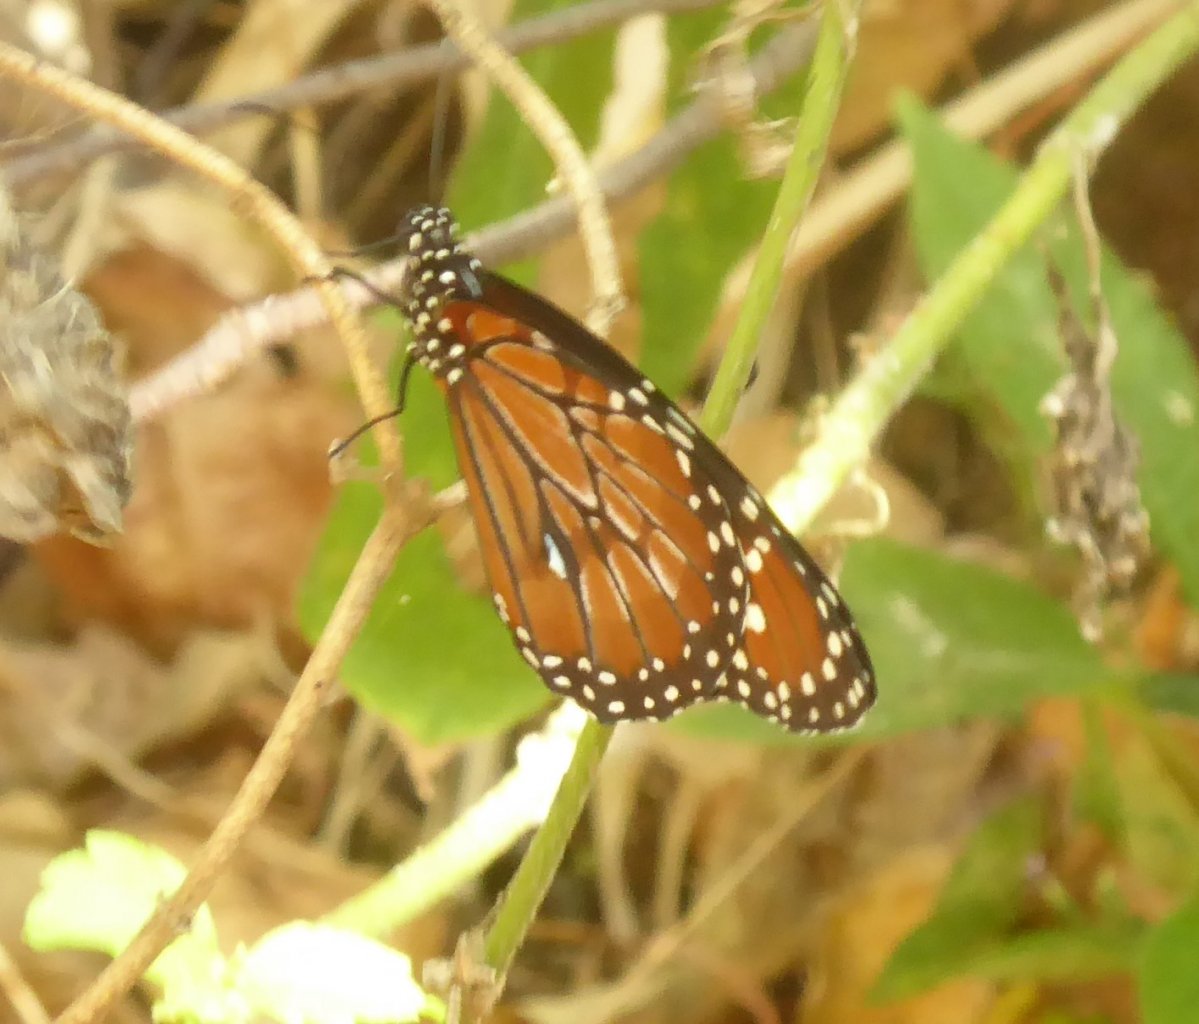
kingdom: Animalia
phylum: Arthropoda
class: Insecta
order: Lepidoptera
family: Nymphalidae
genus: Danaus
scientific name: Danaus gilippus
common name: Queen
